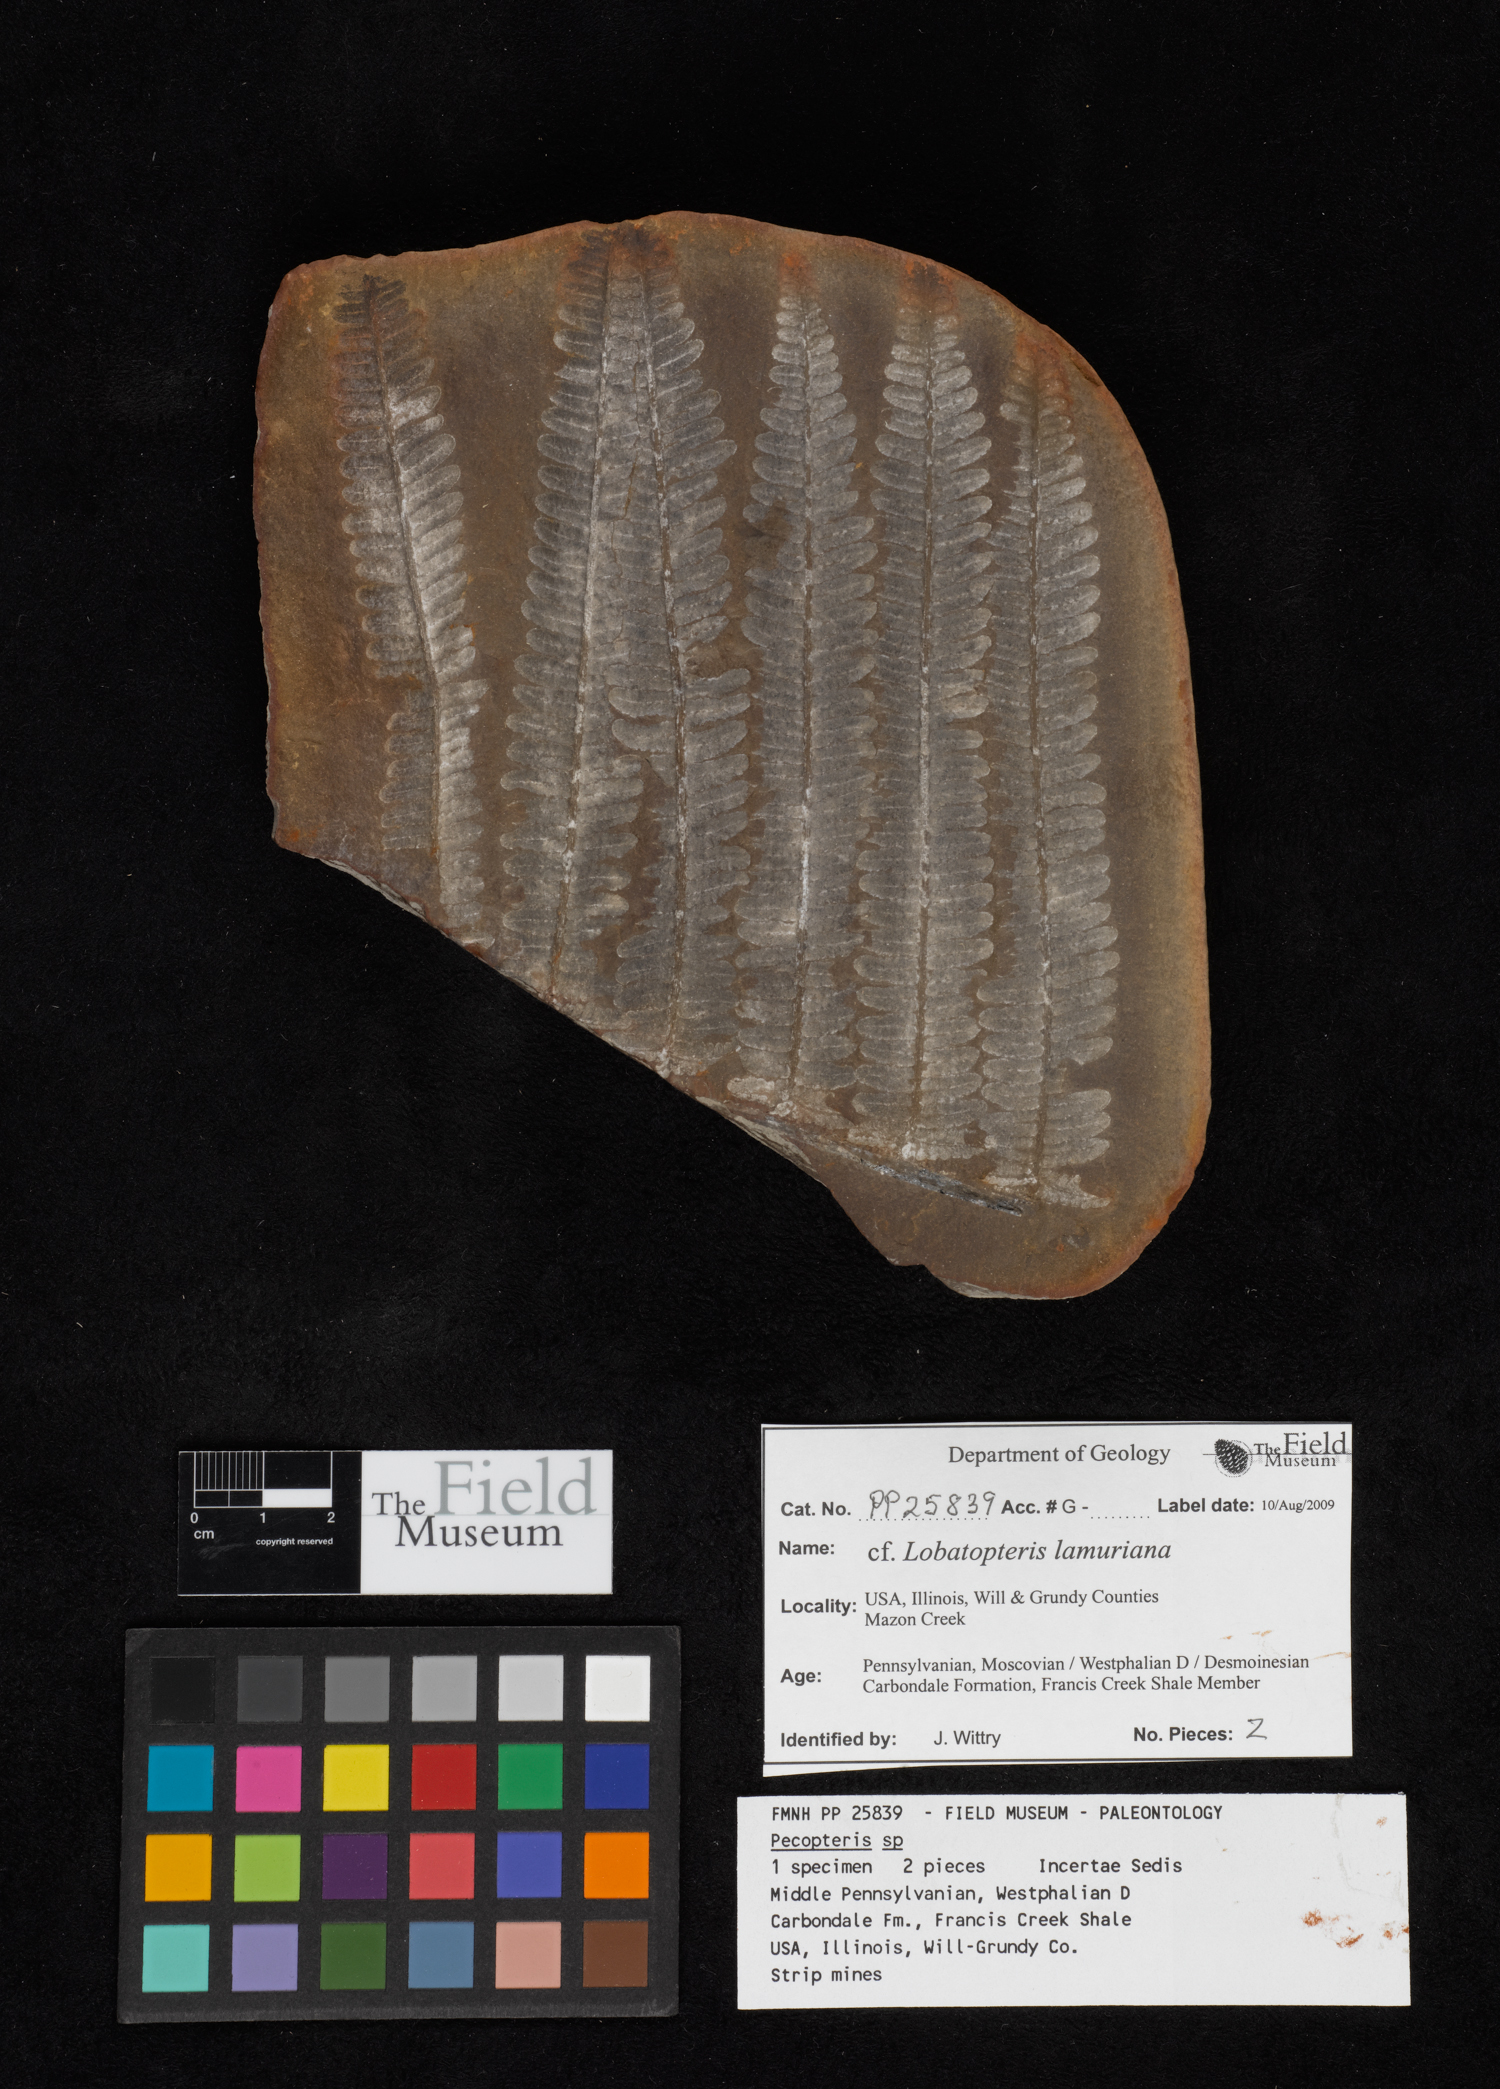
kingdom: Plantae
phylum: Tracheophyta
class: Polypodiopsida
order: Marattiales
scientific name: Marattiales
